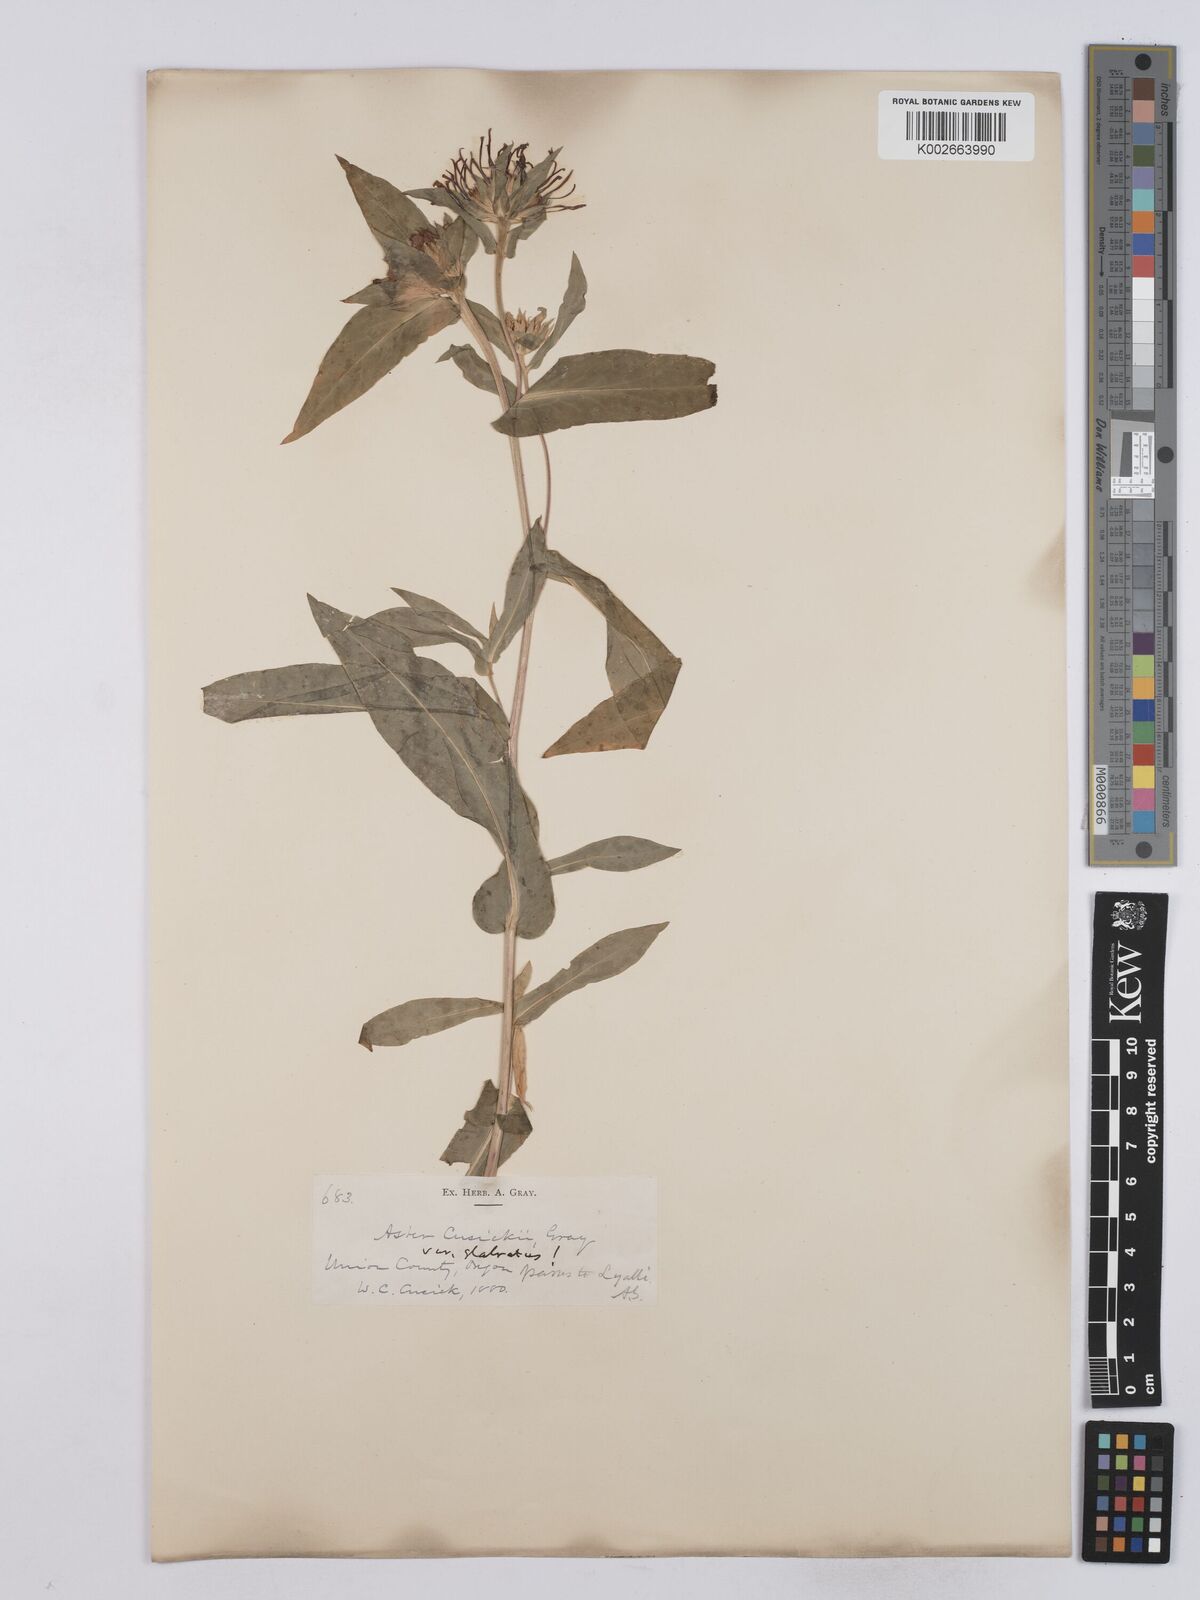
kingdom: Plantae
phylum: Tracheophyta
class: Magnoliopsida
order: Asterales
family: Asteraceae
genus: Symphyotrichum
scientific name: Symphyotrichum foliaceum
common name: Leafy aster
